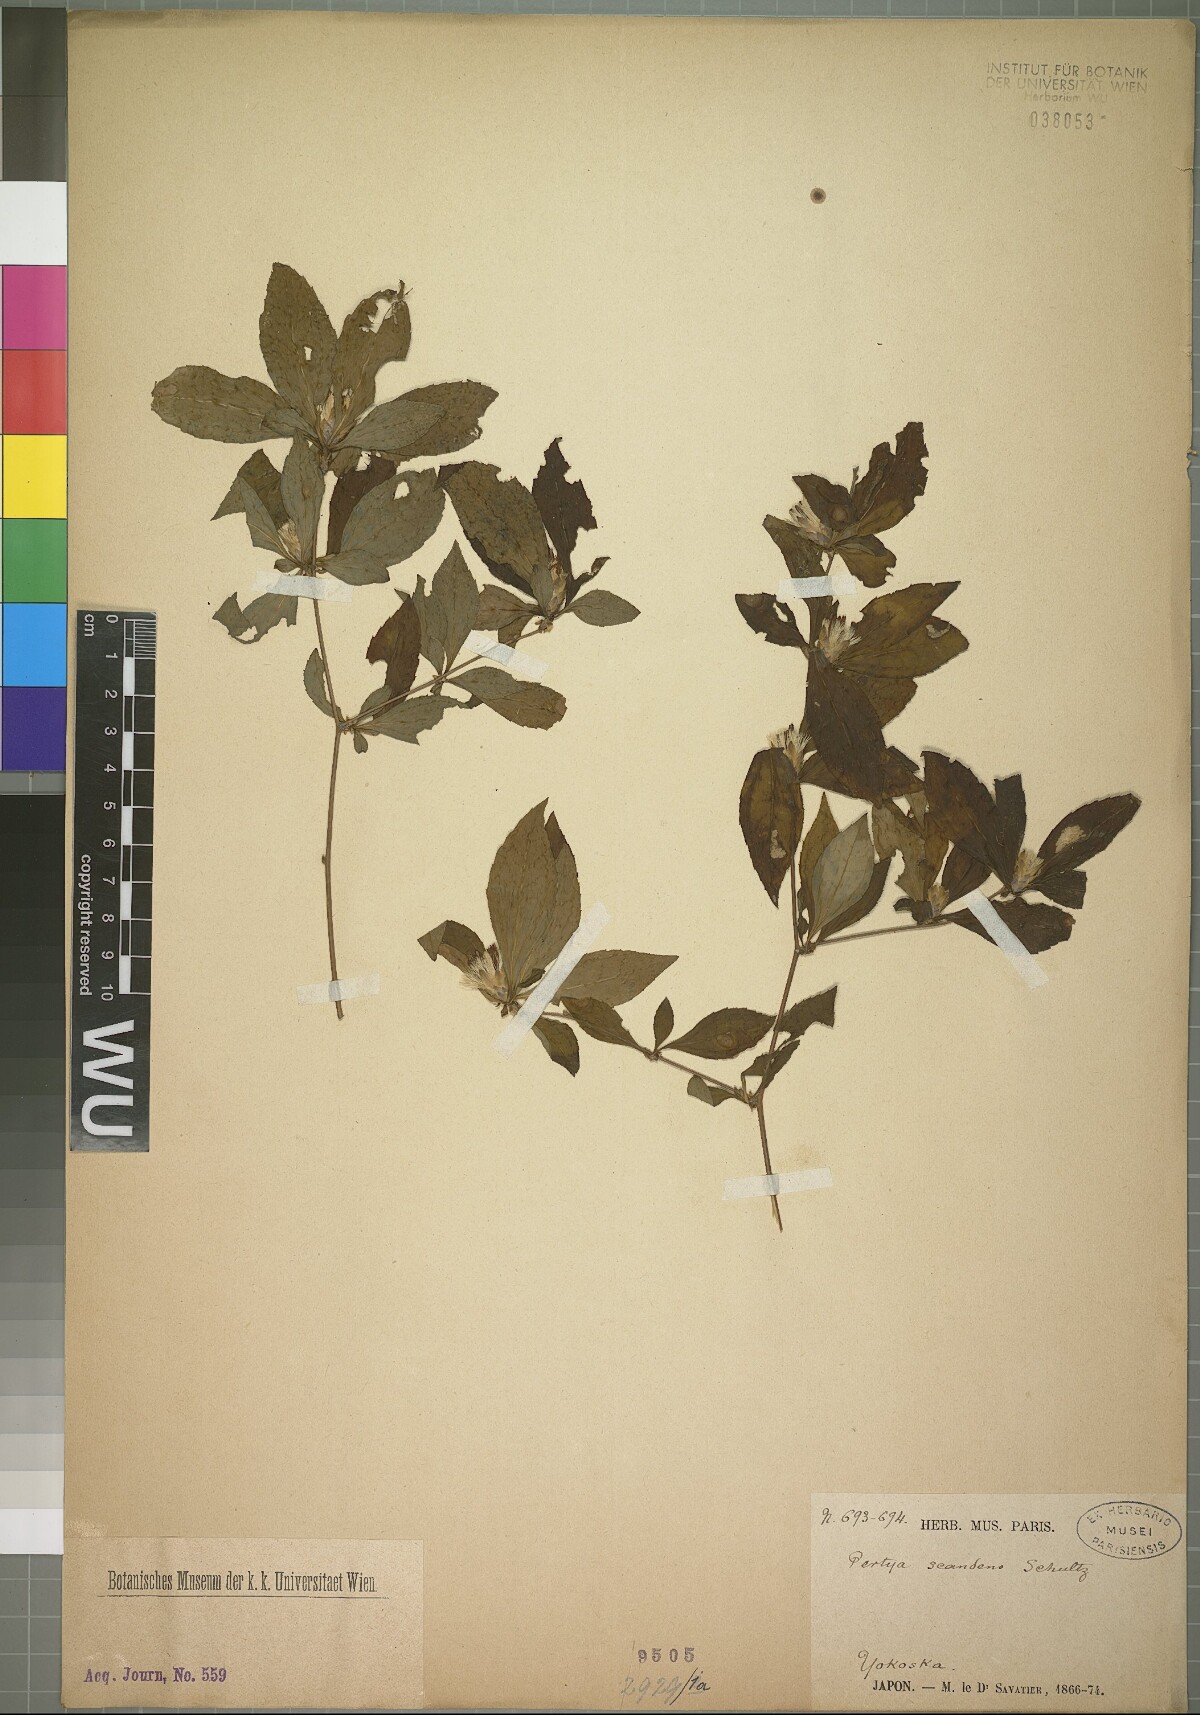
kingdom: Plantae
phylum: Tracheophyta
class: Magnoliopsida
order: Asterales
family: Asteraceae
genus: Pertya
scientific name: Pertya glabrescens
